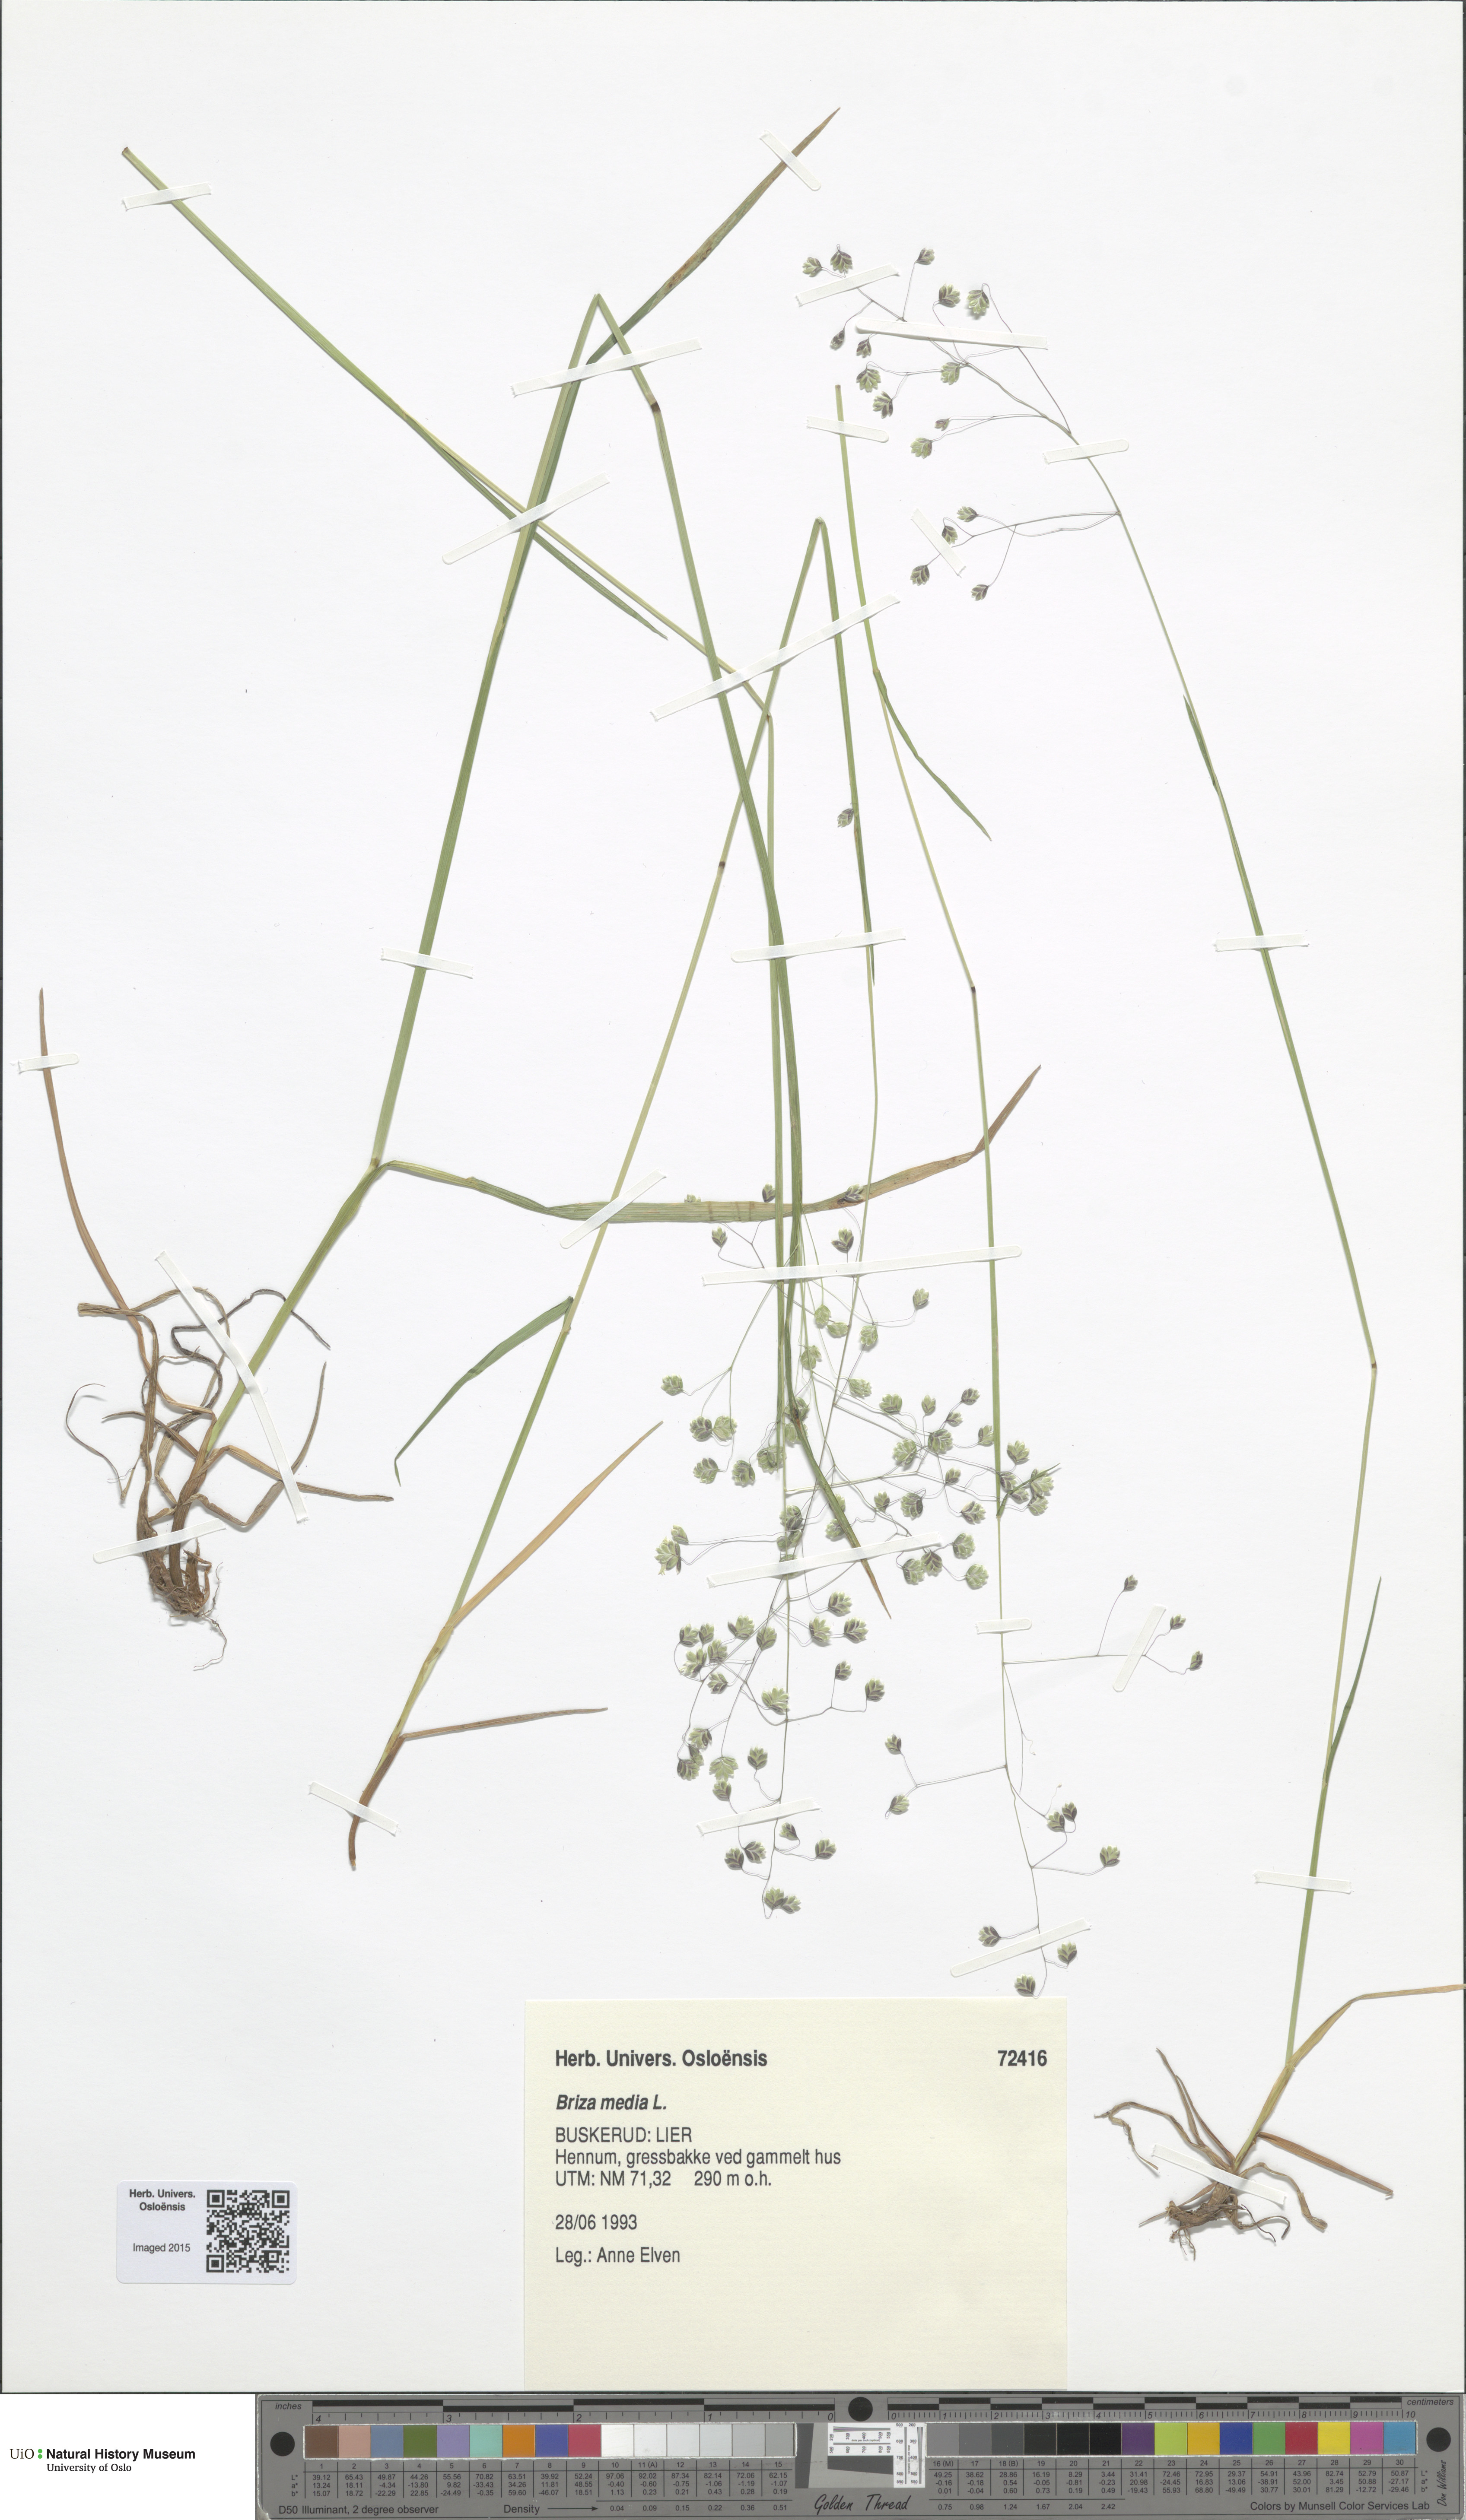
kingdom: Plantae
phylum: Tracheophyta
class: Liliopsida
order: Poales
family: Poaceae
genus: Briza
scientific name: Briza media
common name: Quaking grass
